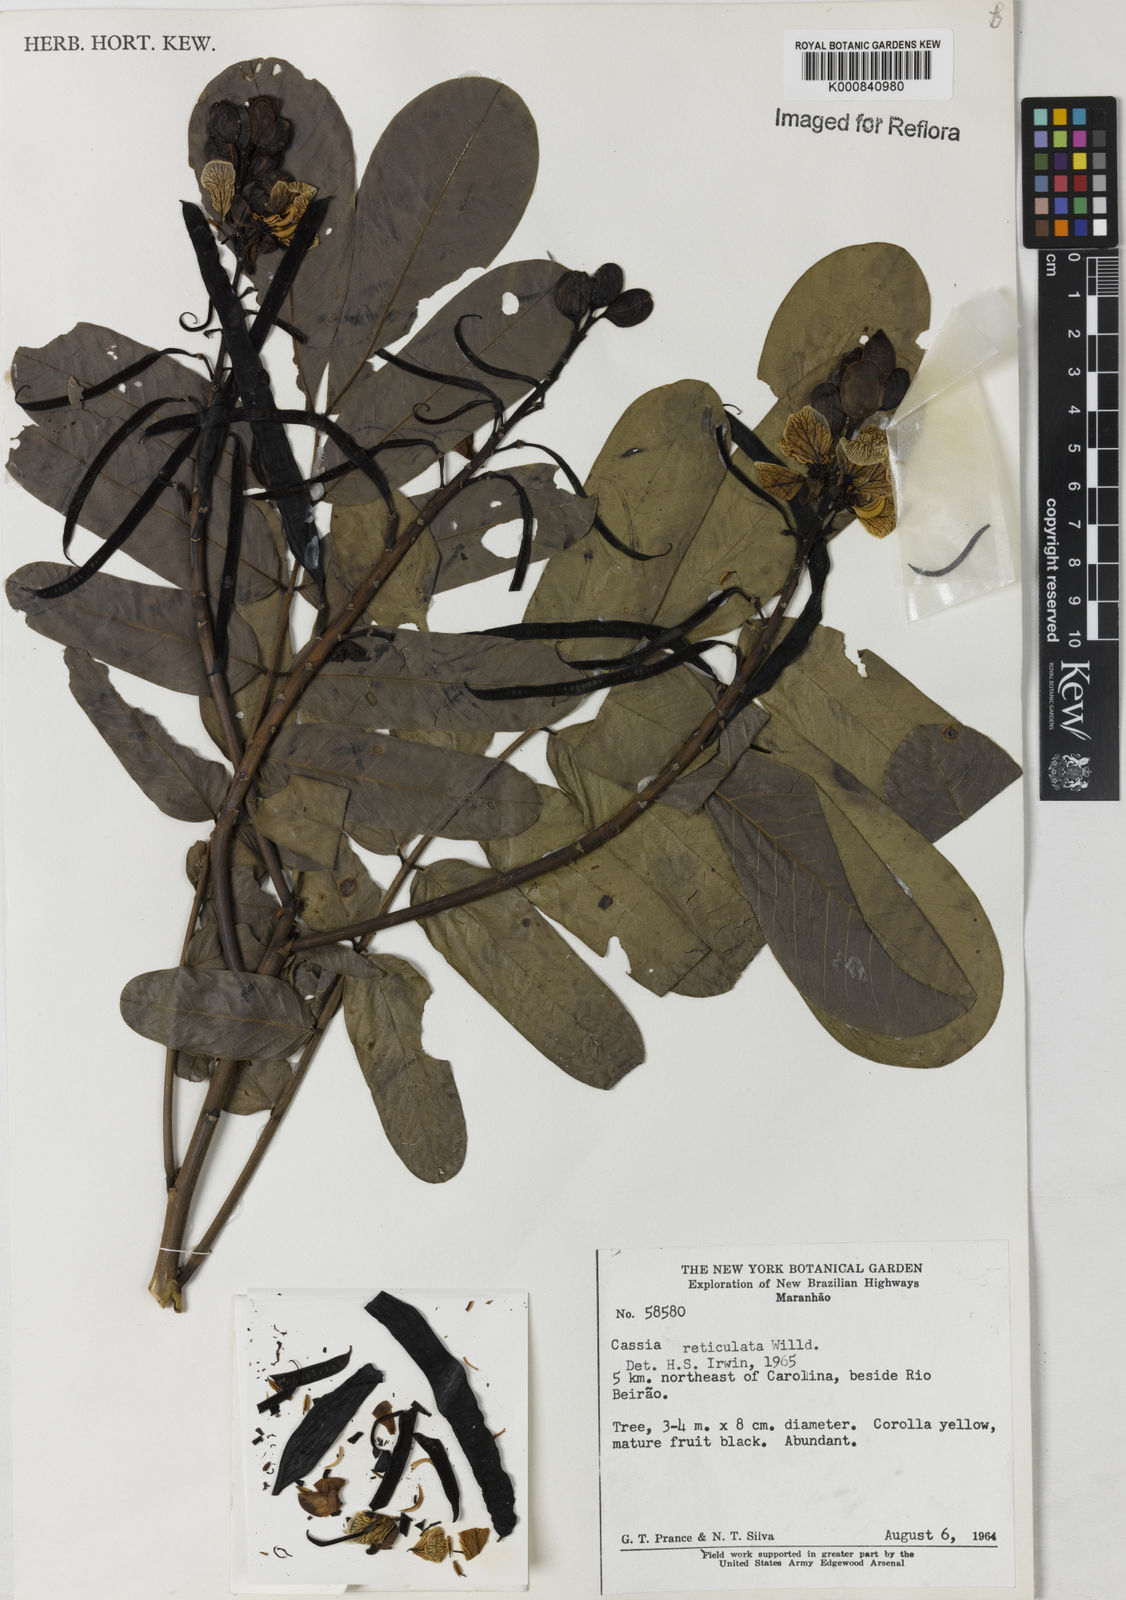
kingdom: Plantae
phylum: Tracheophyta
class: Magnoliopsida
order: Fabales
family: Fabaceae
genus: Senna
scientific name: Senna reticulata
